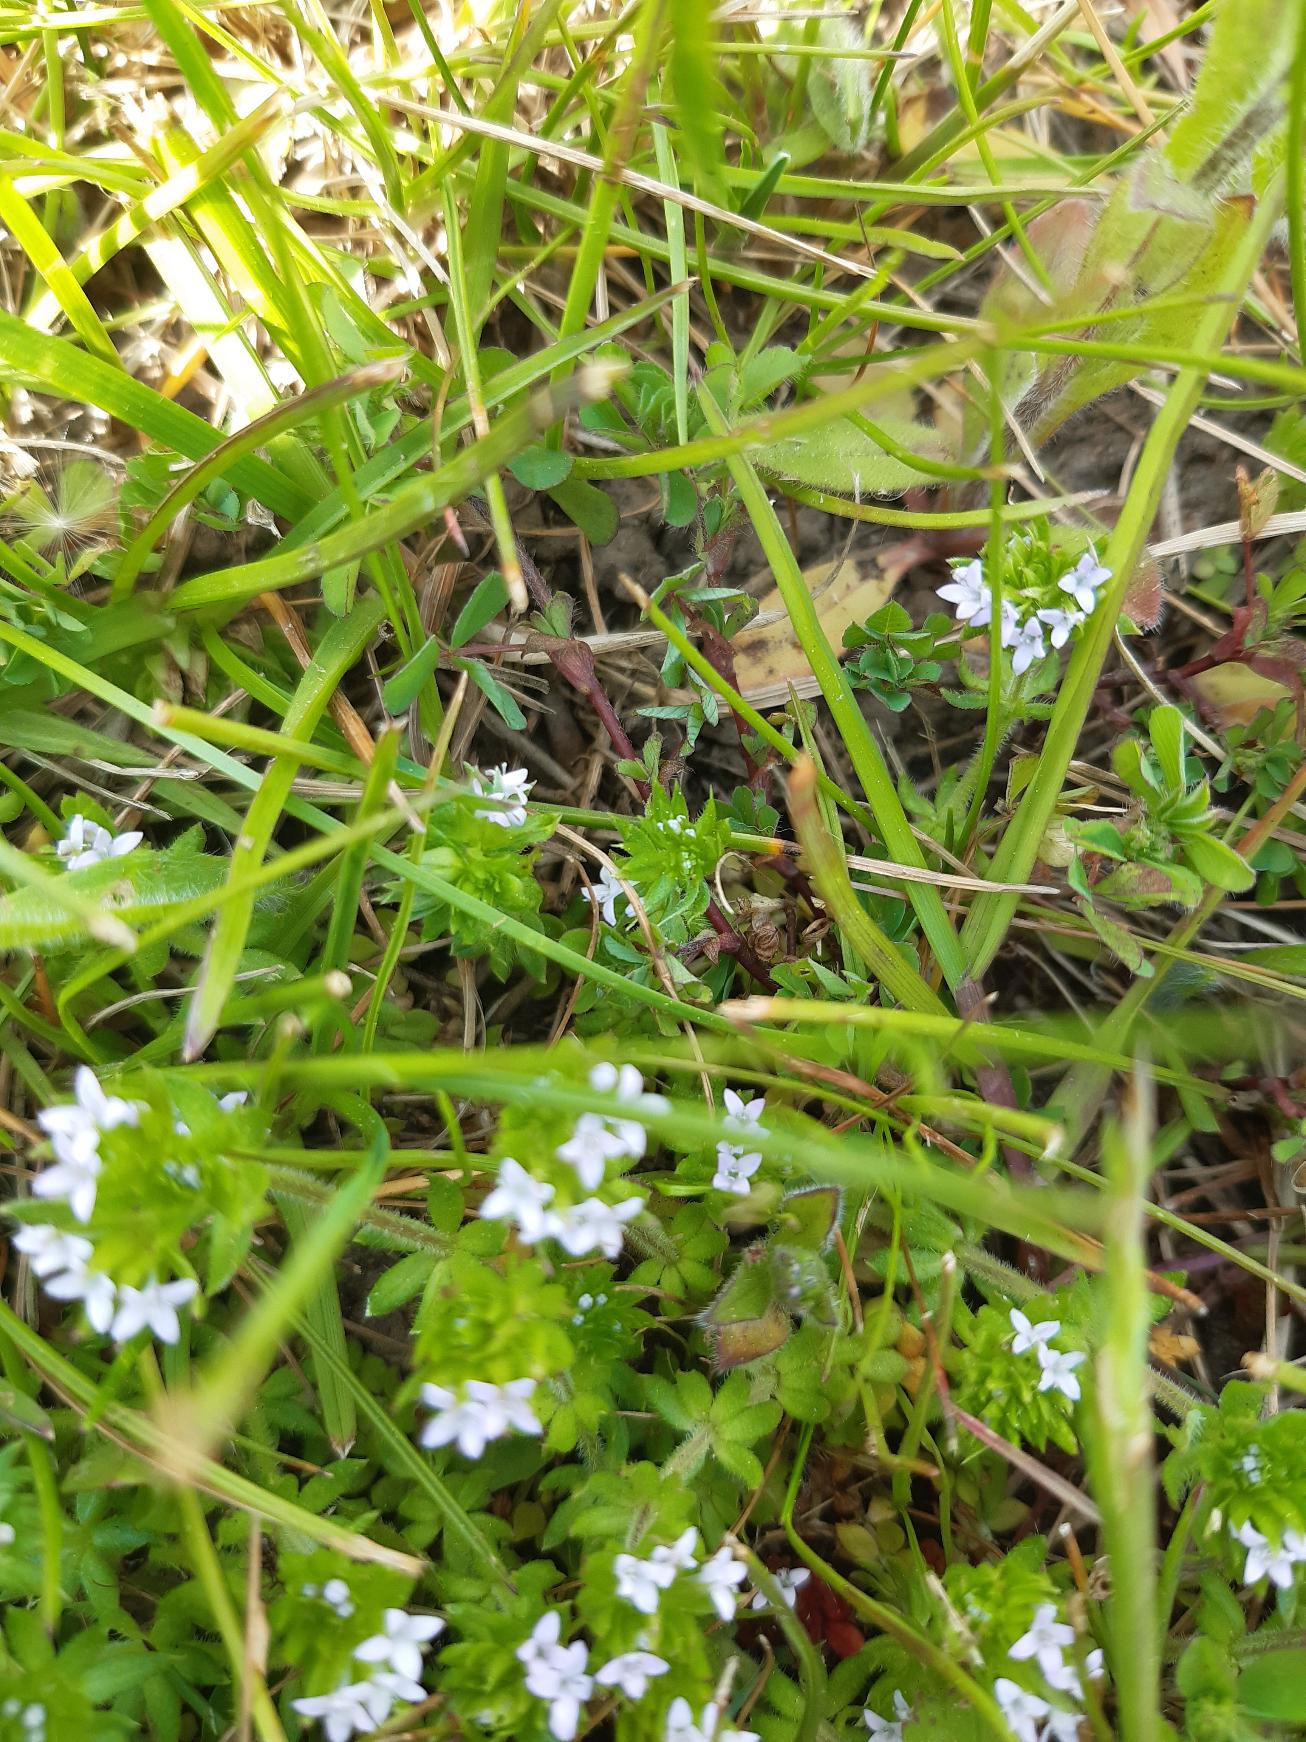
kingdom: Plantae
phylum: Tracheophyta
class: Magnoliopsida
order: Gentianales
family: Rubiaceae
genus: Sherardia
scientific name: Sherardia arvensis
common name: Blåstjerne
